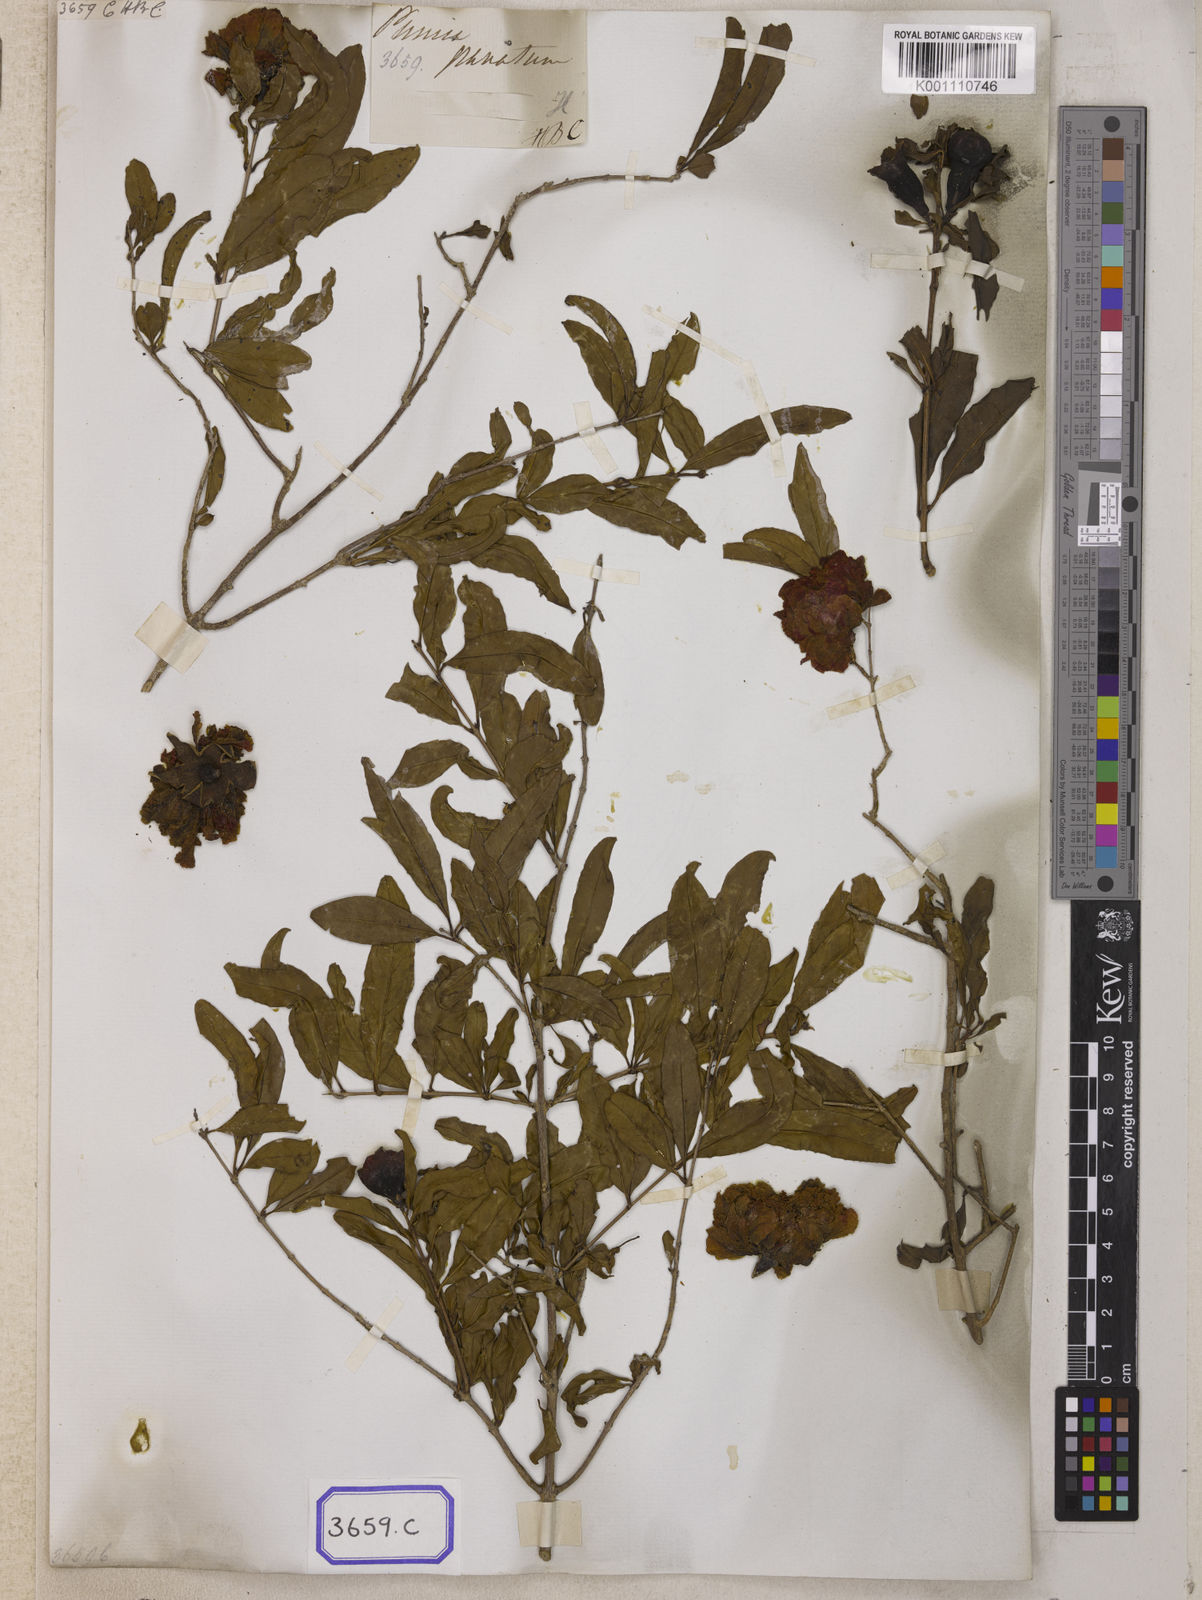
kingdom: Plantae
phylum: Tracheophyta
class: Magnoliopsida
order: Myrtales
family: Lythraceae
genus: Punica
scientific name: Punica granatum
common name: Pomegranate
